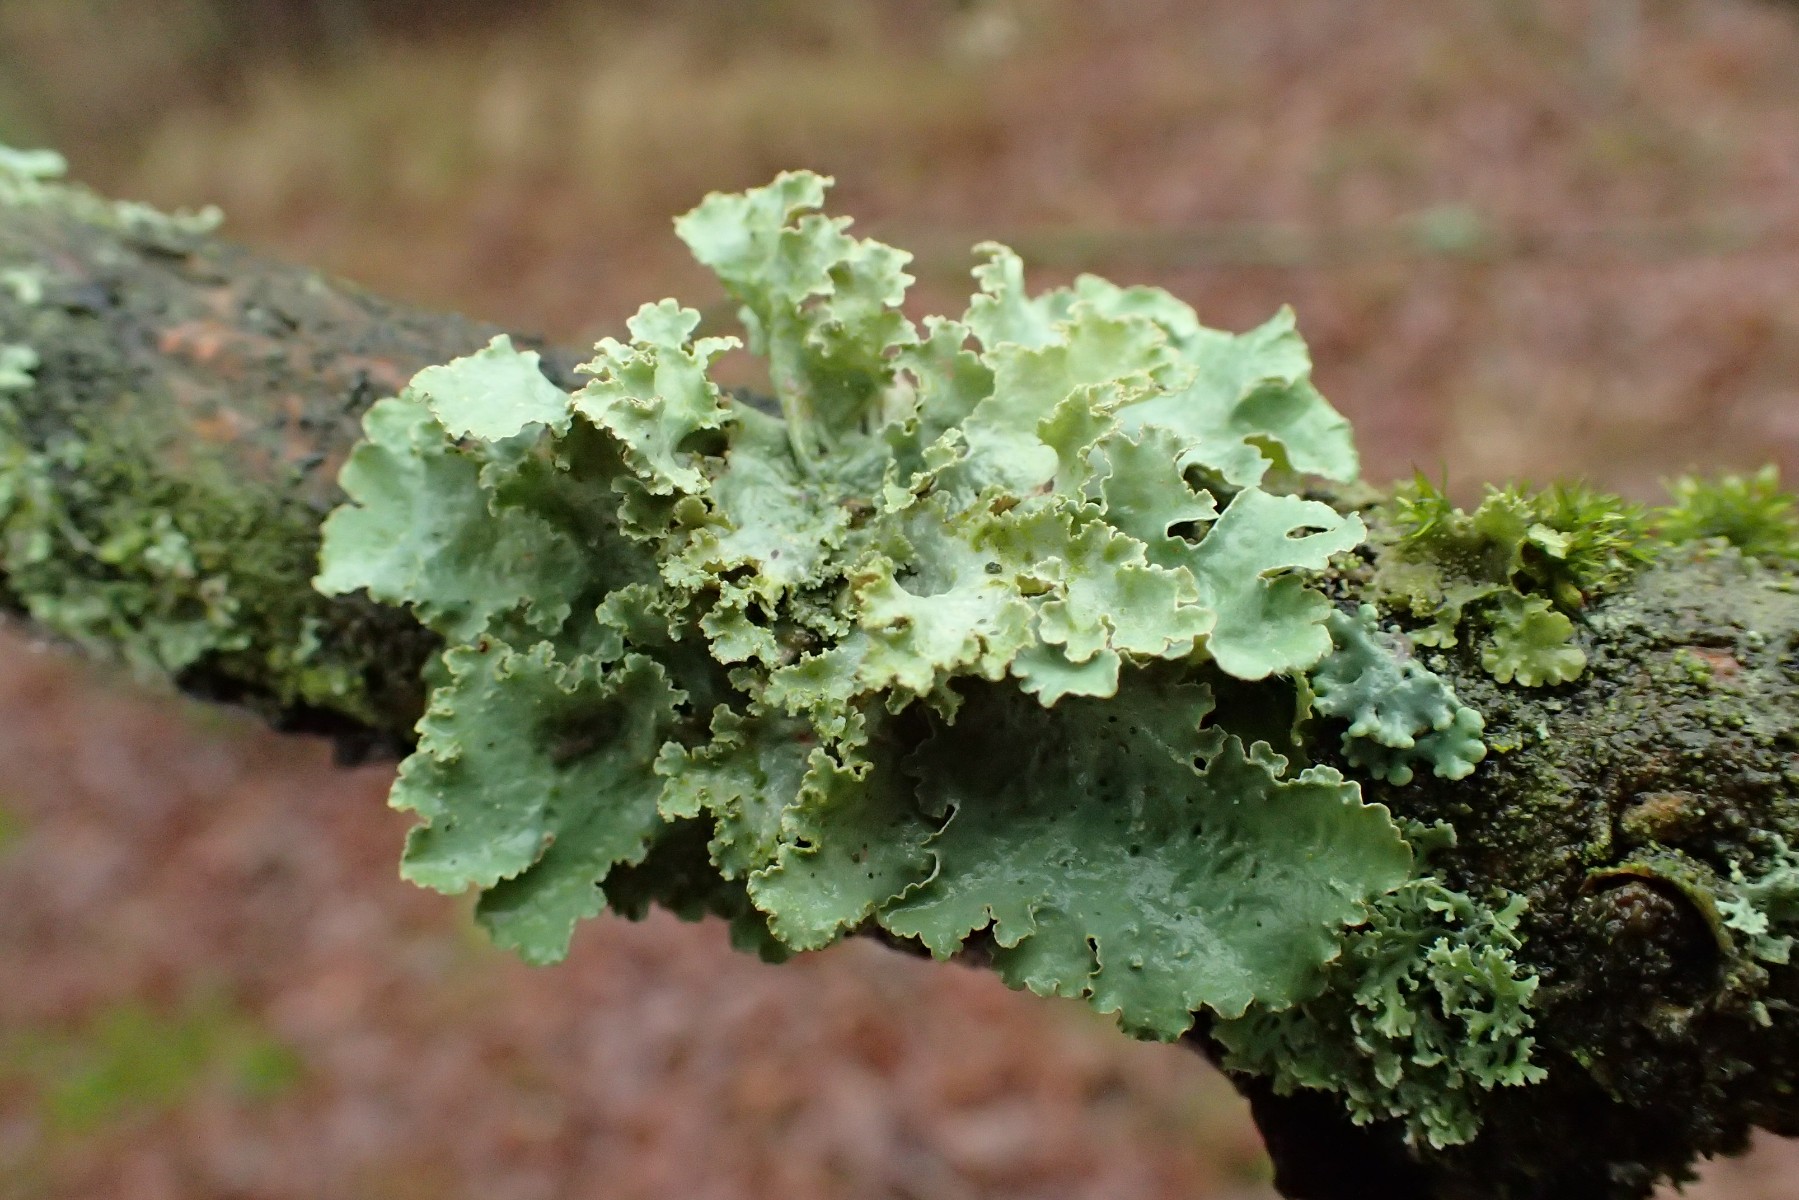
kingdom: Fungi
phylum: Ascomycota
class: Lecanoromycetes
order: Lecanorales
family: Parmeliaceae
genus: Platismatia
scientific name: Platismatia glauca
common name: blågrå papirlav
